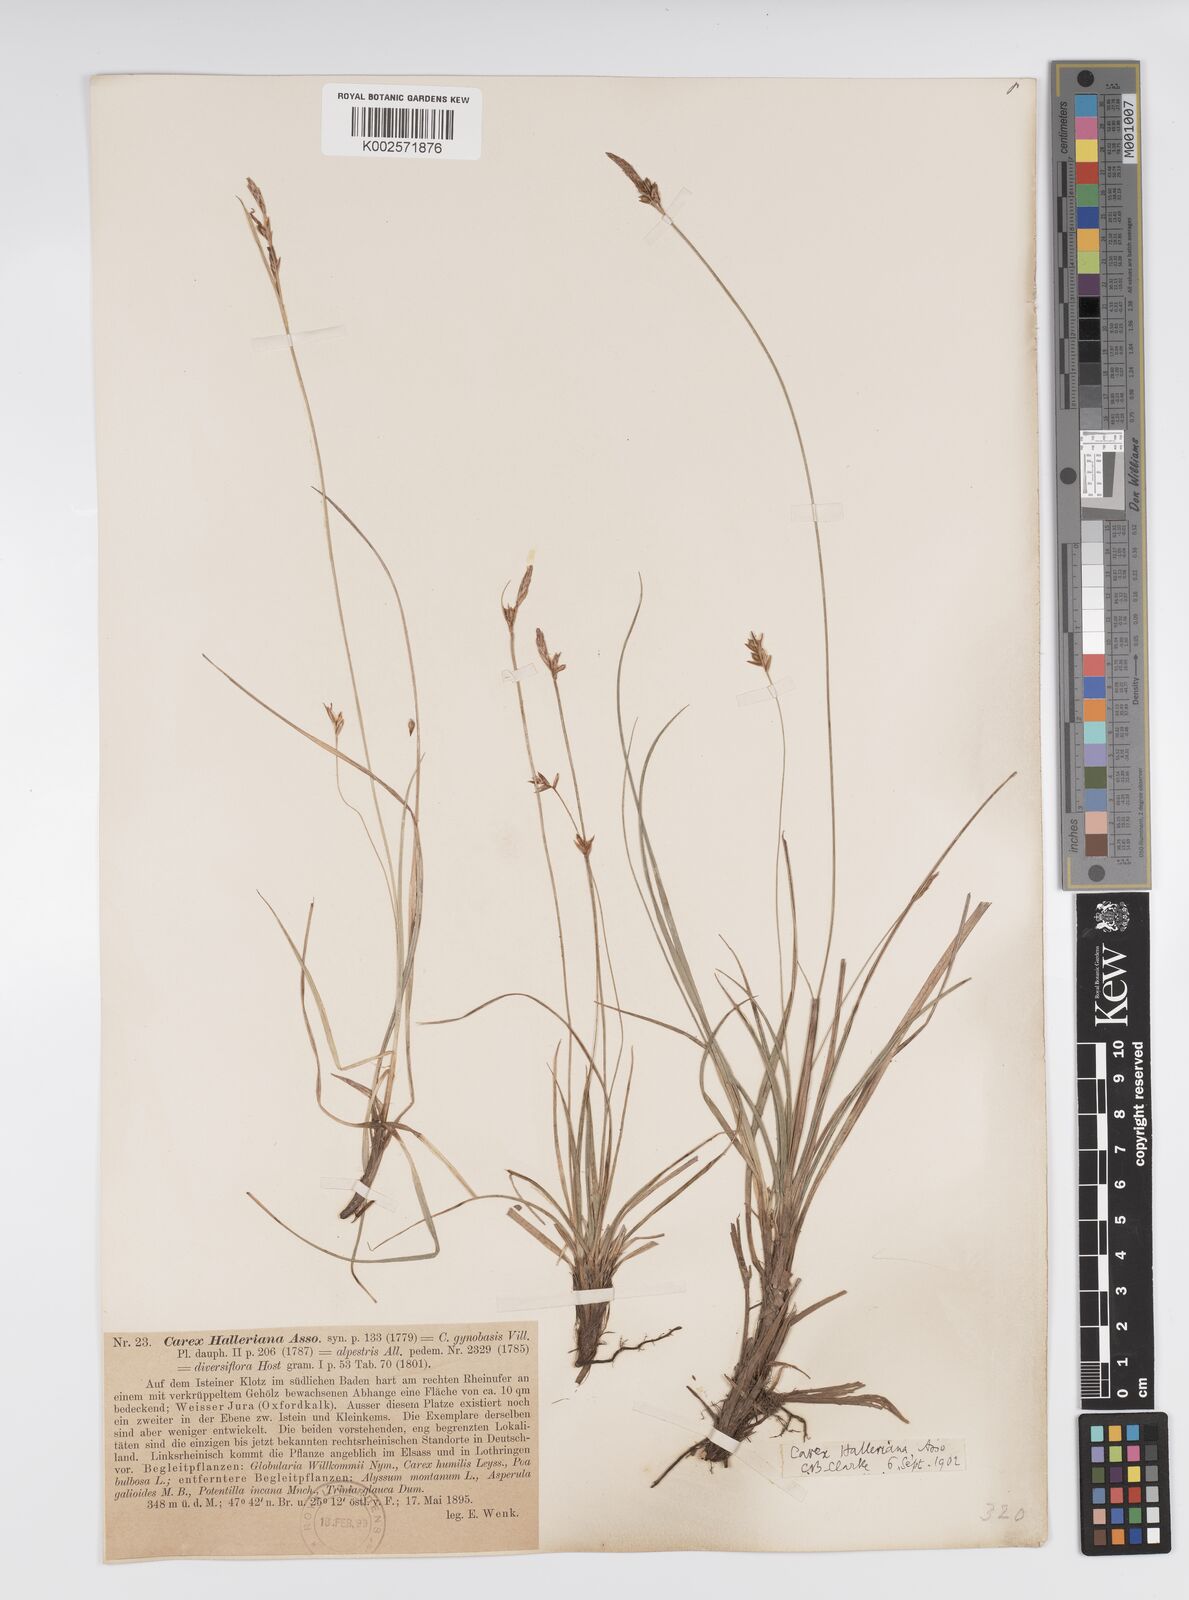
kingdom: Plantae
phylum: Tracheophyta
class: Liliopsida
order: Poales
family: Cyperaceae
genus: Carex
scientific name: Carex halleriana
